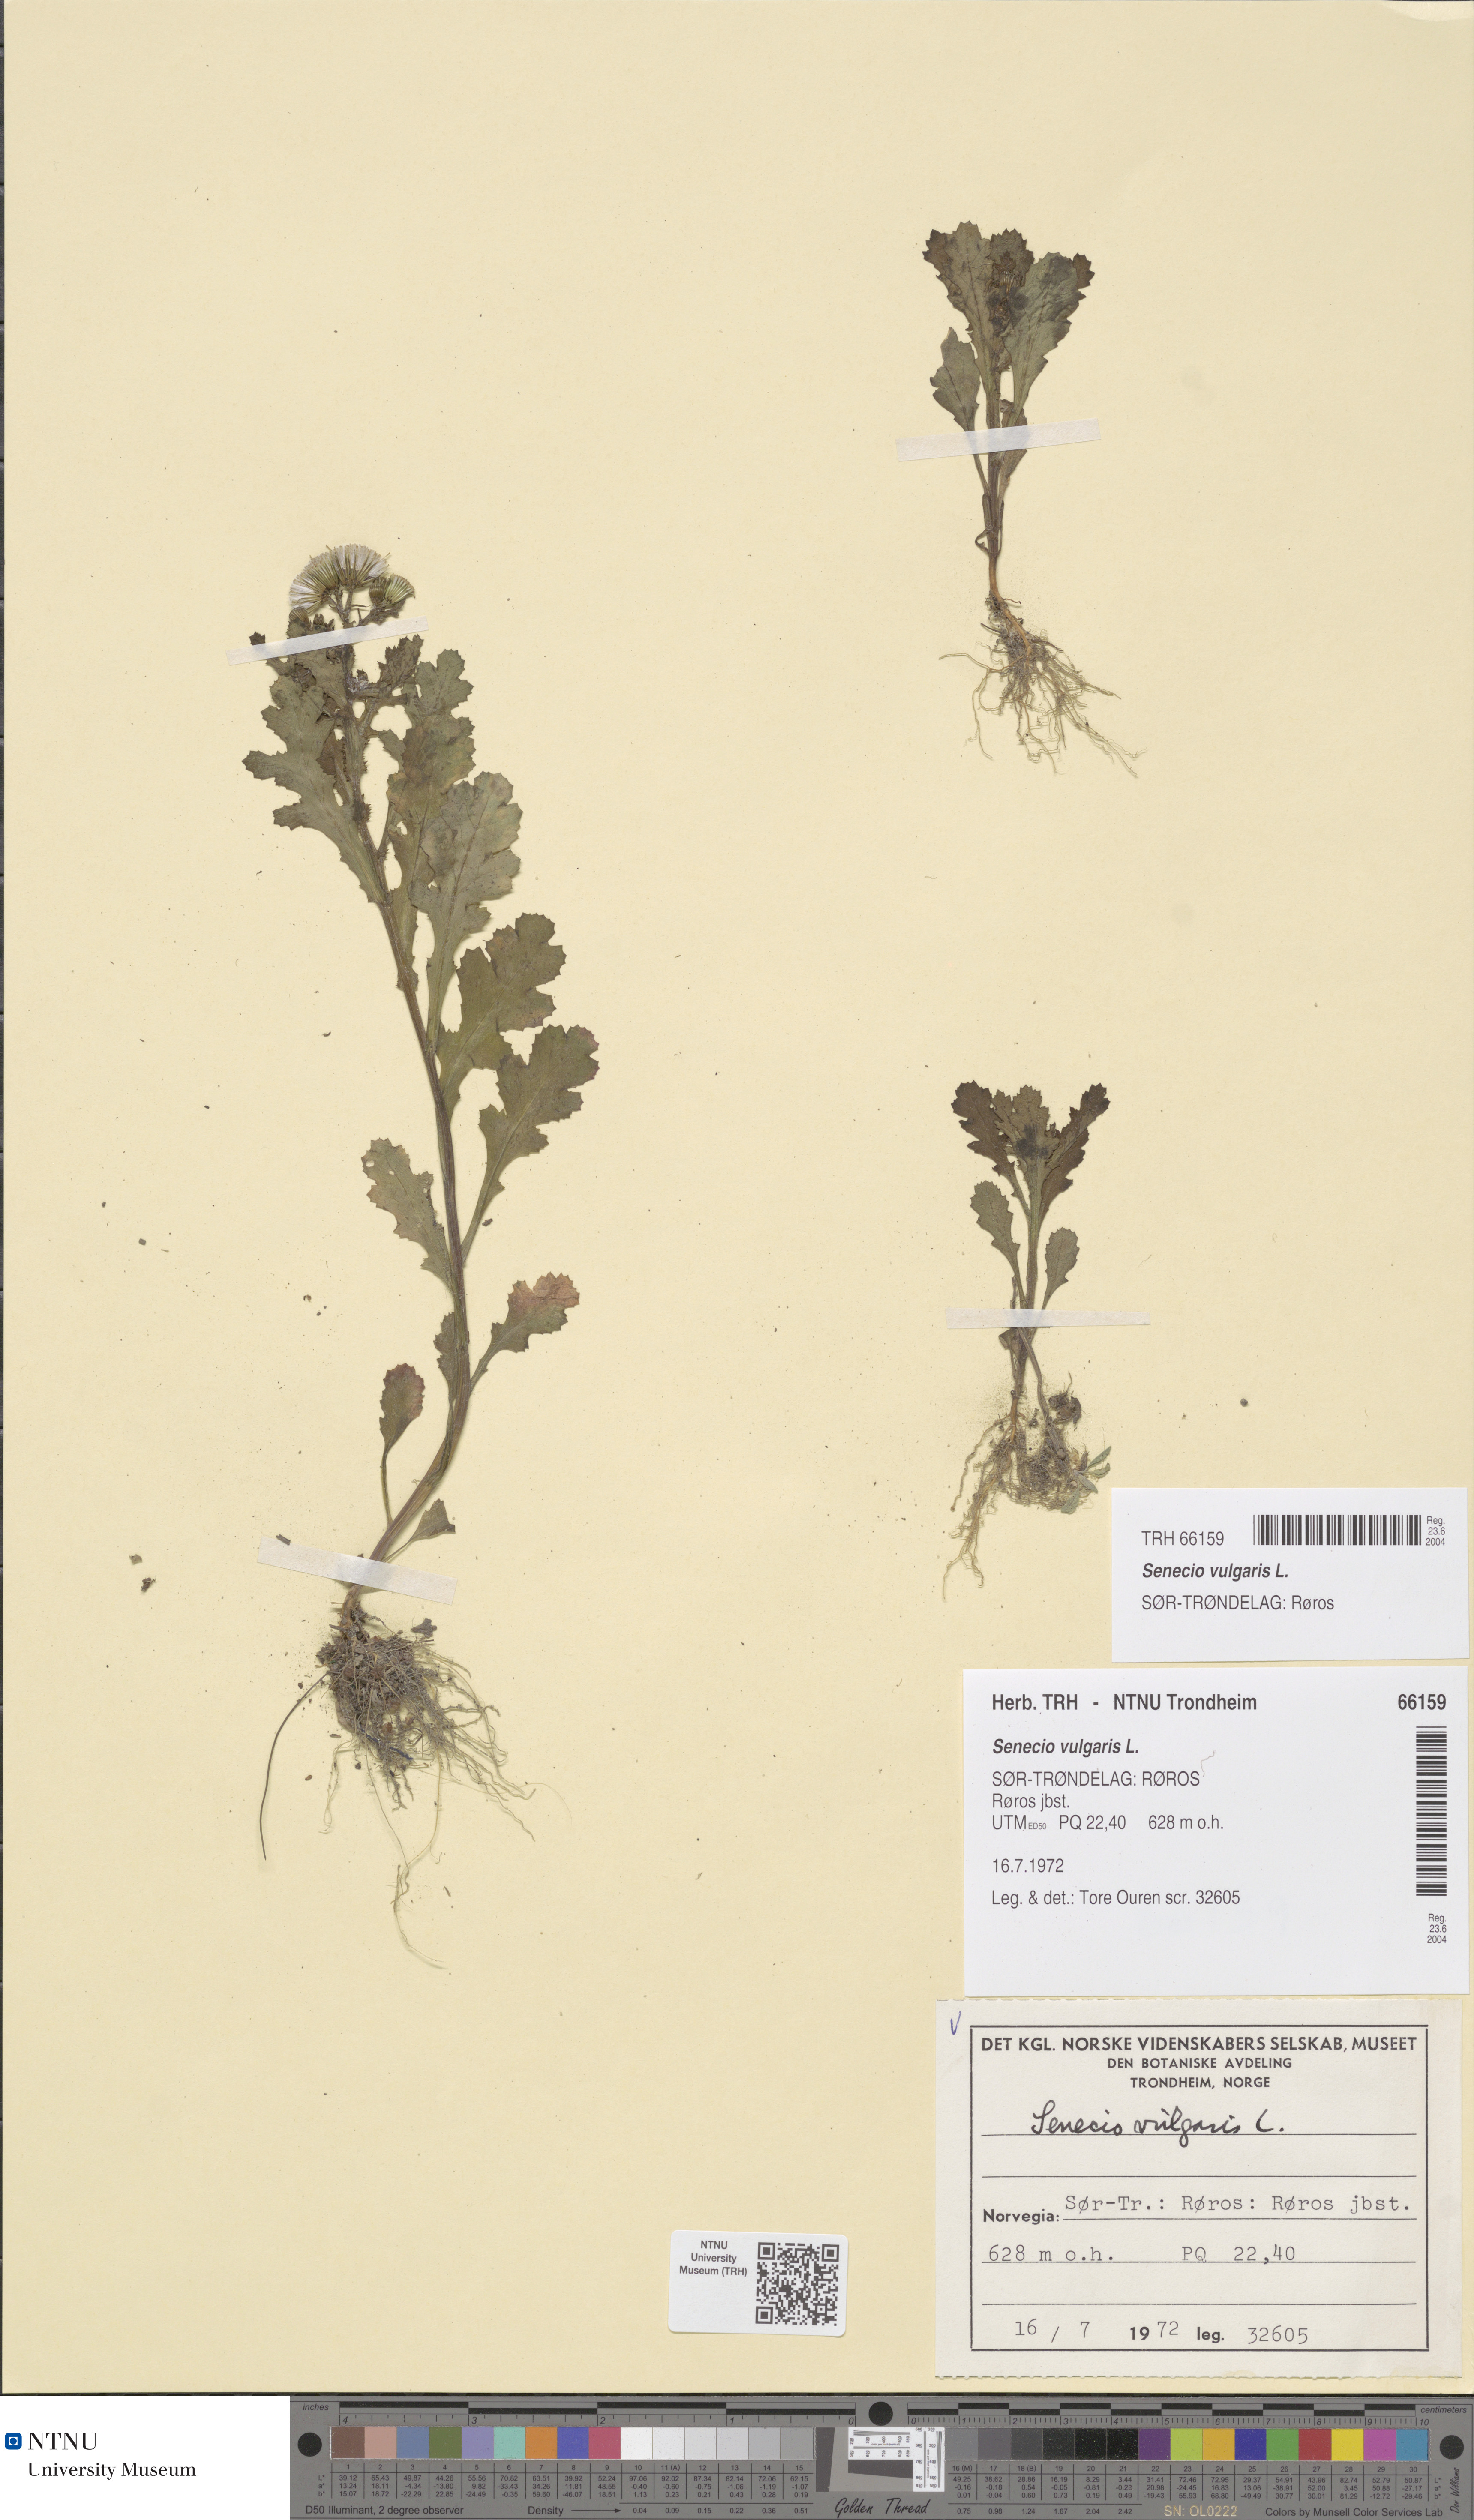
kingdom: Plantae
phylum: Tracheophyta
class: Magnoliopsida
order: Asterales
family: Asteraceae
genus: Senecio
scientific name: Senecio vulgaris
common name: Old-man-in-the-spring
